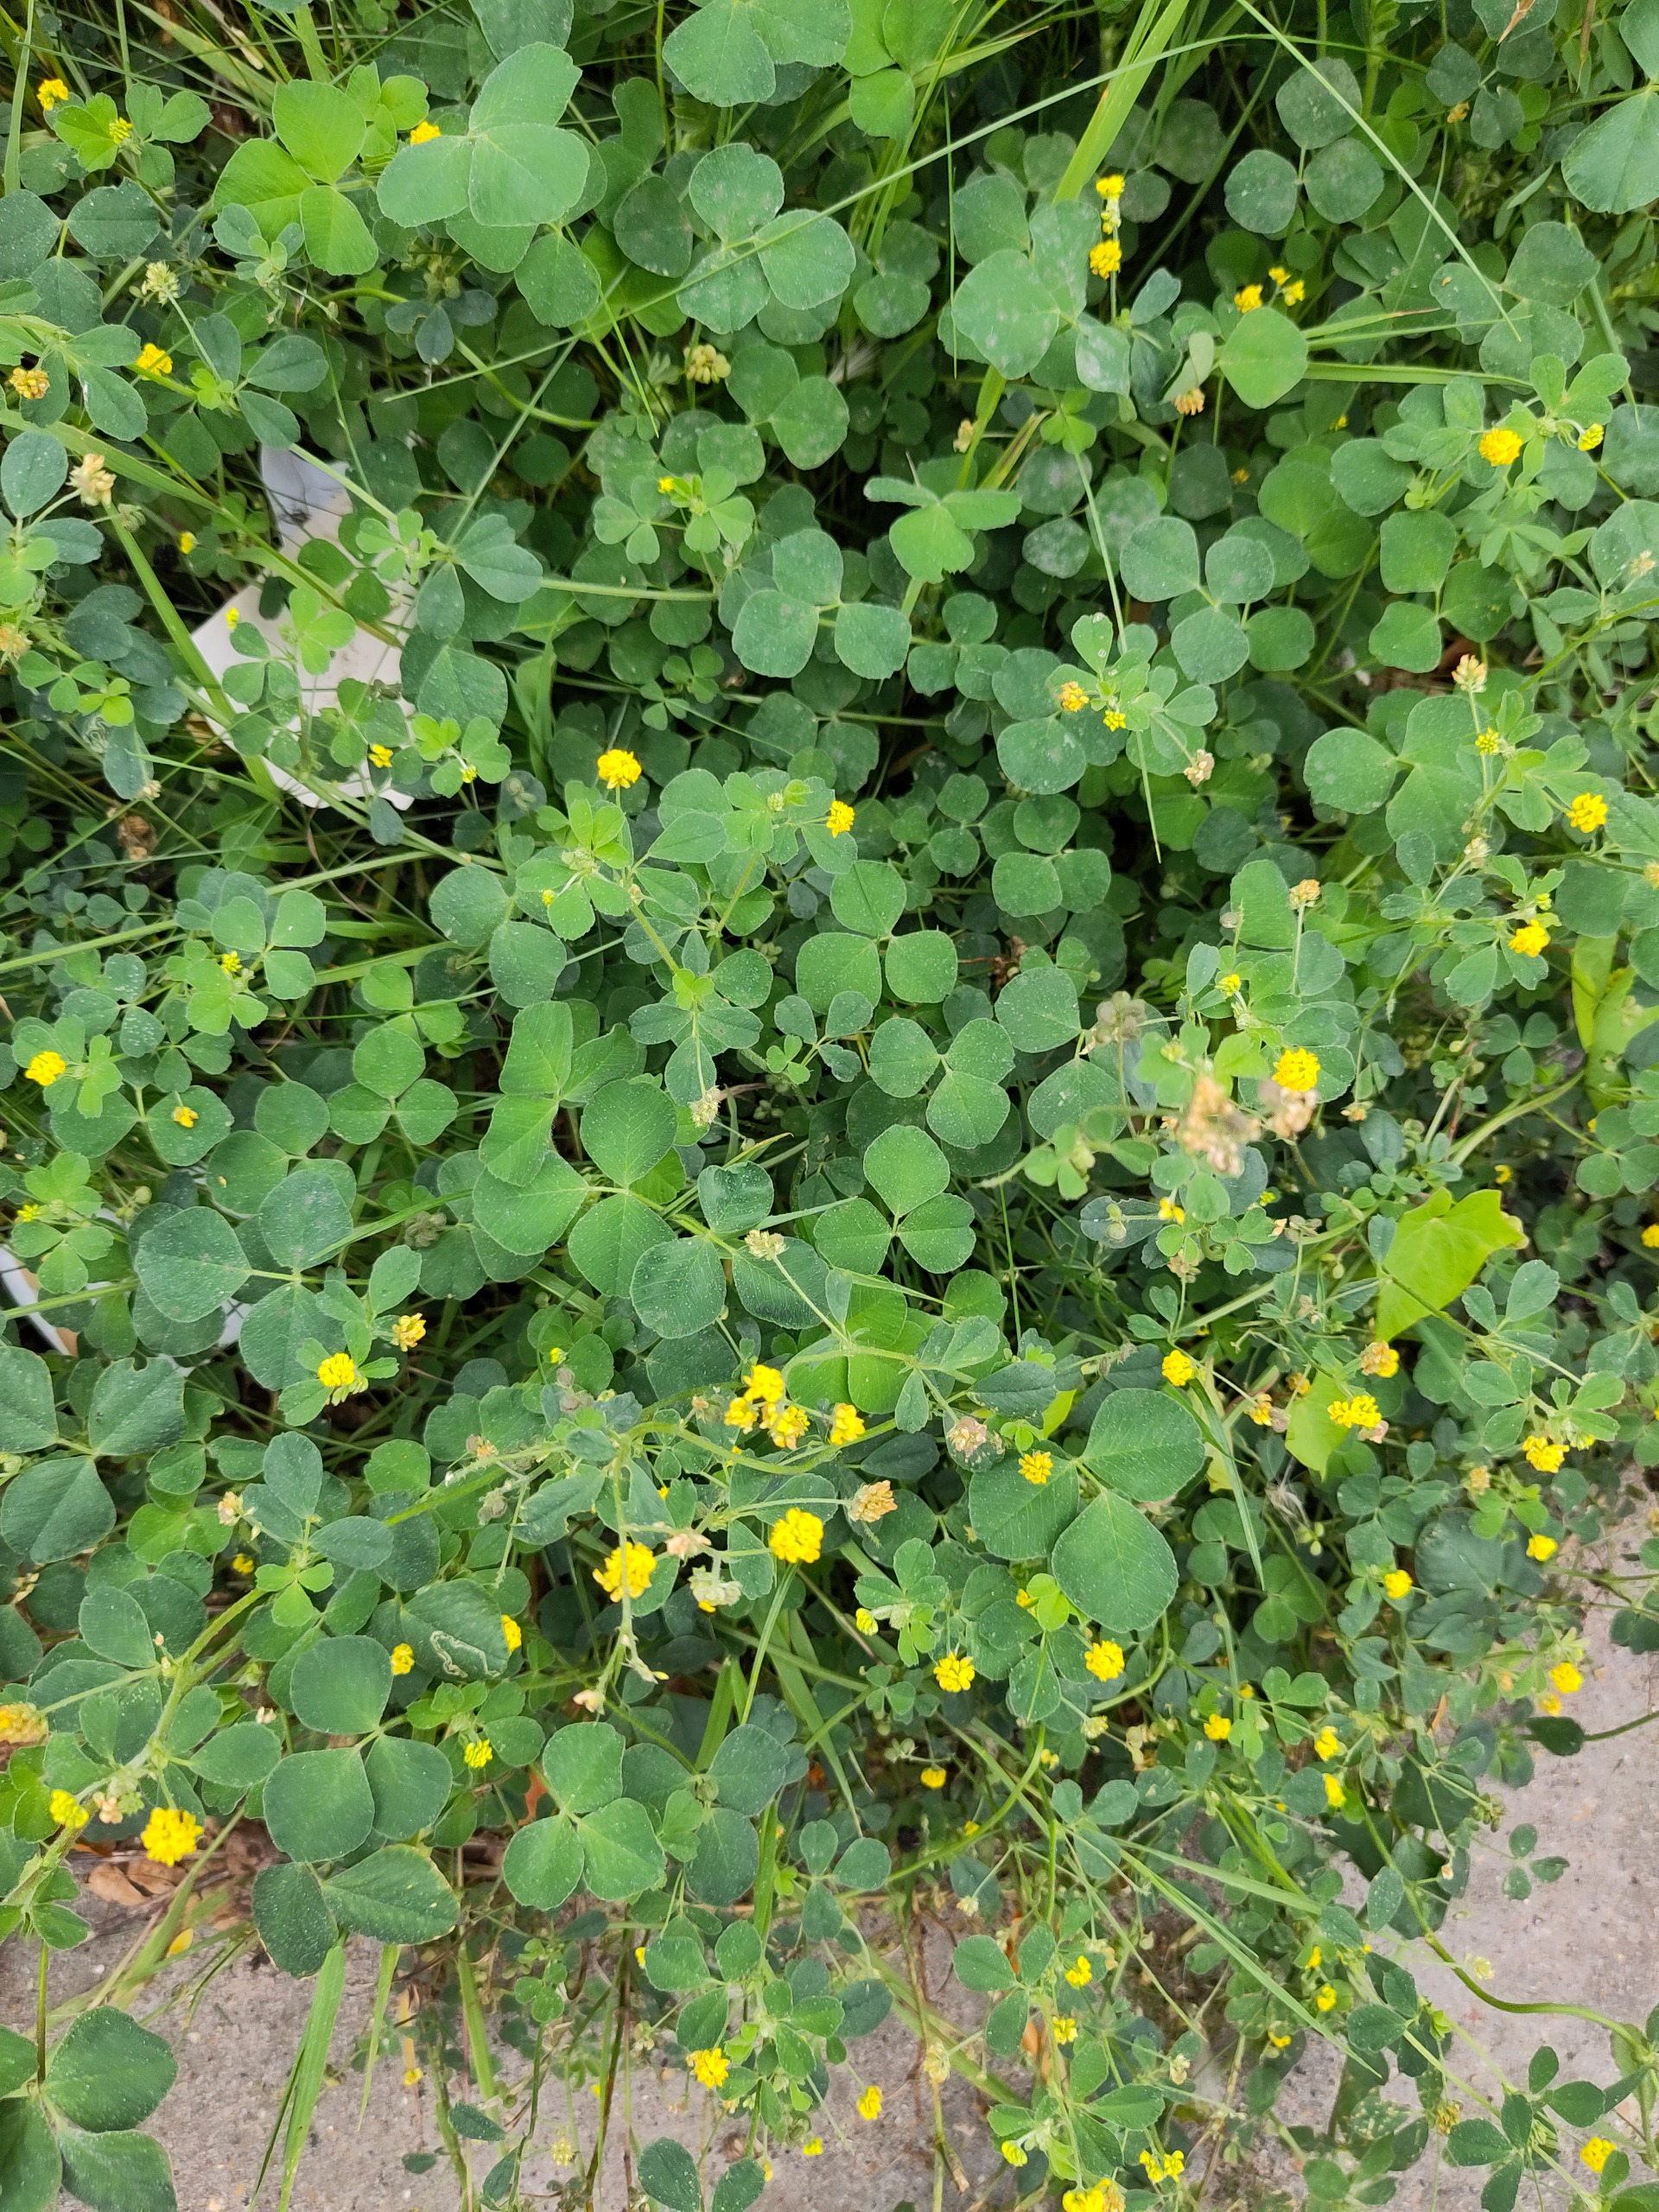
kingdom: Plantae
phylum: Tracheophyta
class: Magnoliopsida
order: Fabales
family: Fabaceae
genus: Medicago
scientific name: Medicago lupulina
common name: Humle-sneglebælg
